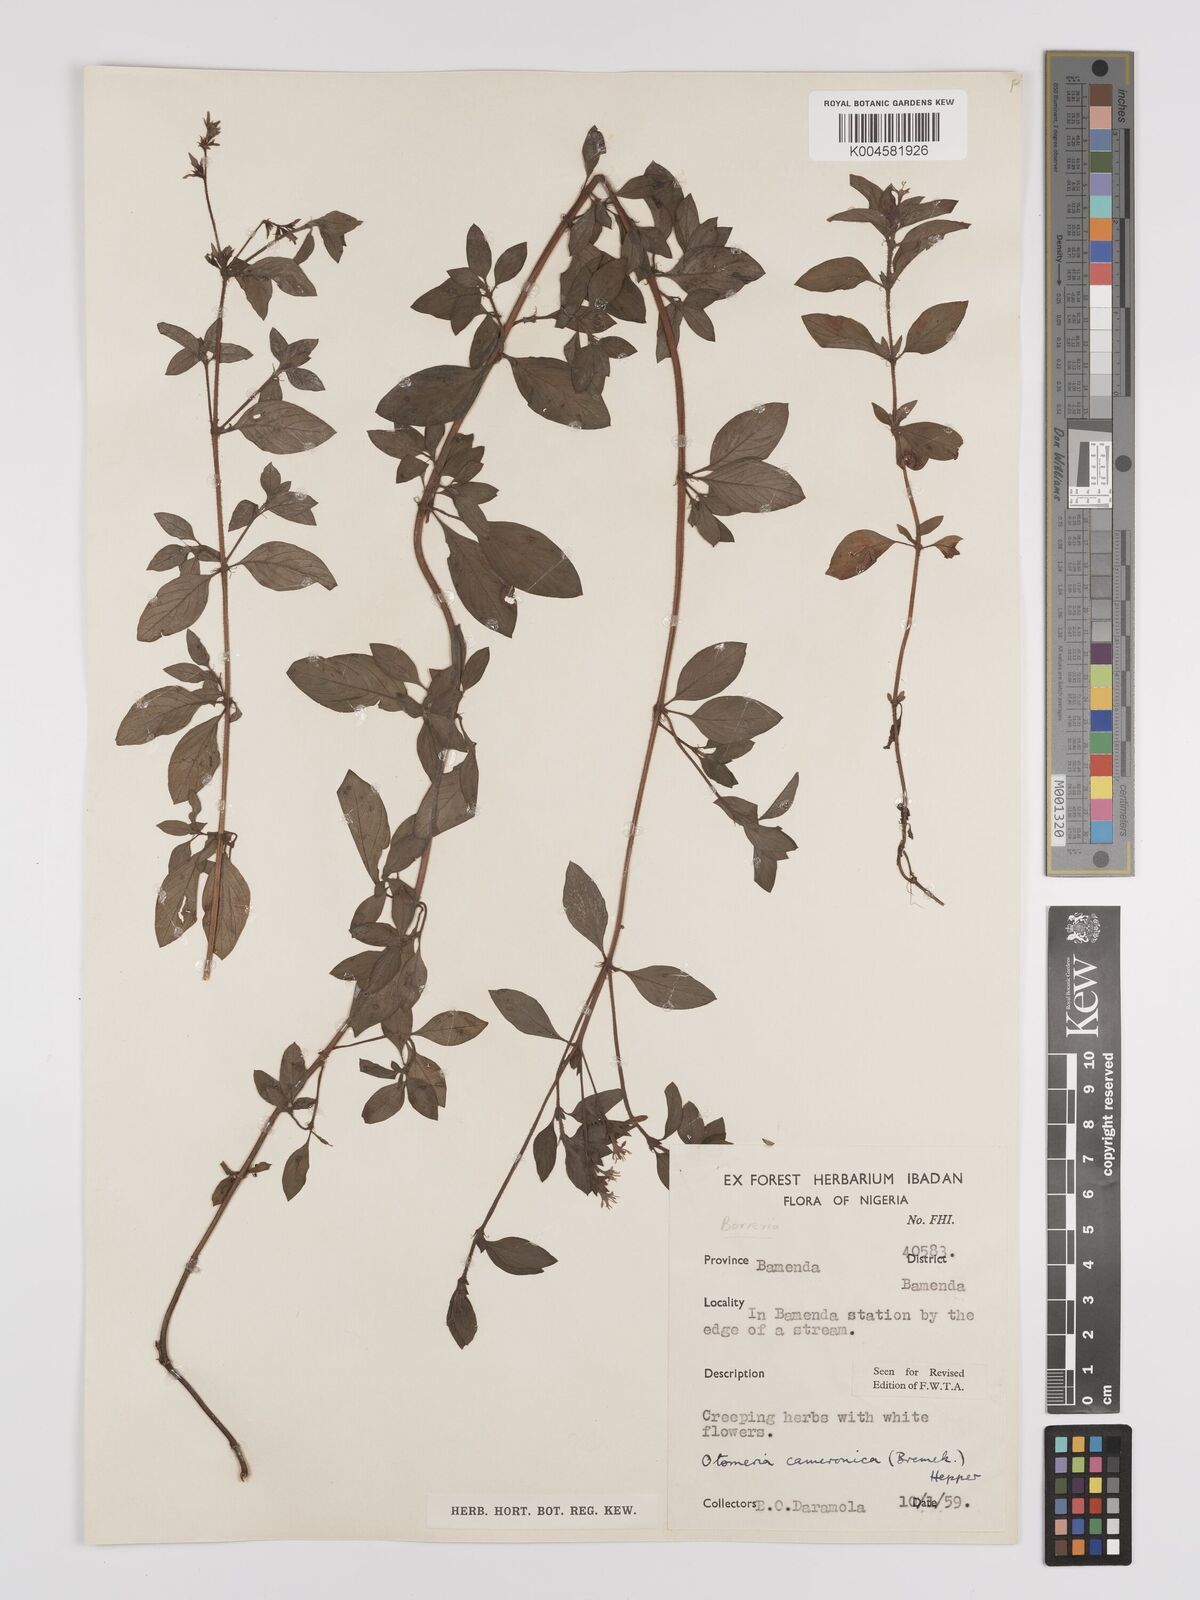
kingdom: Plantae
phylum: Tracheophyta
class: Magnoliopsida
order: Gentianales
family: Rubiaceae
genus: Otomeria
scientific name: Otomeria cameronica
